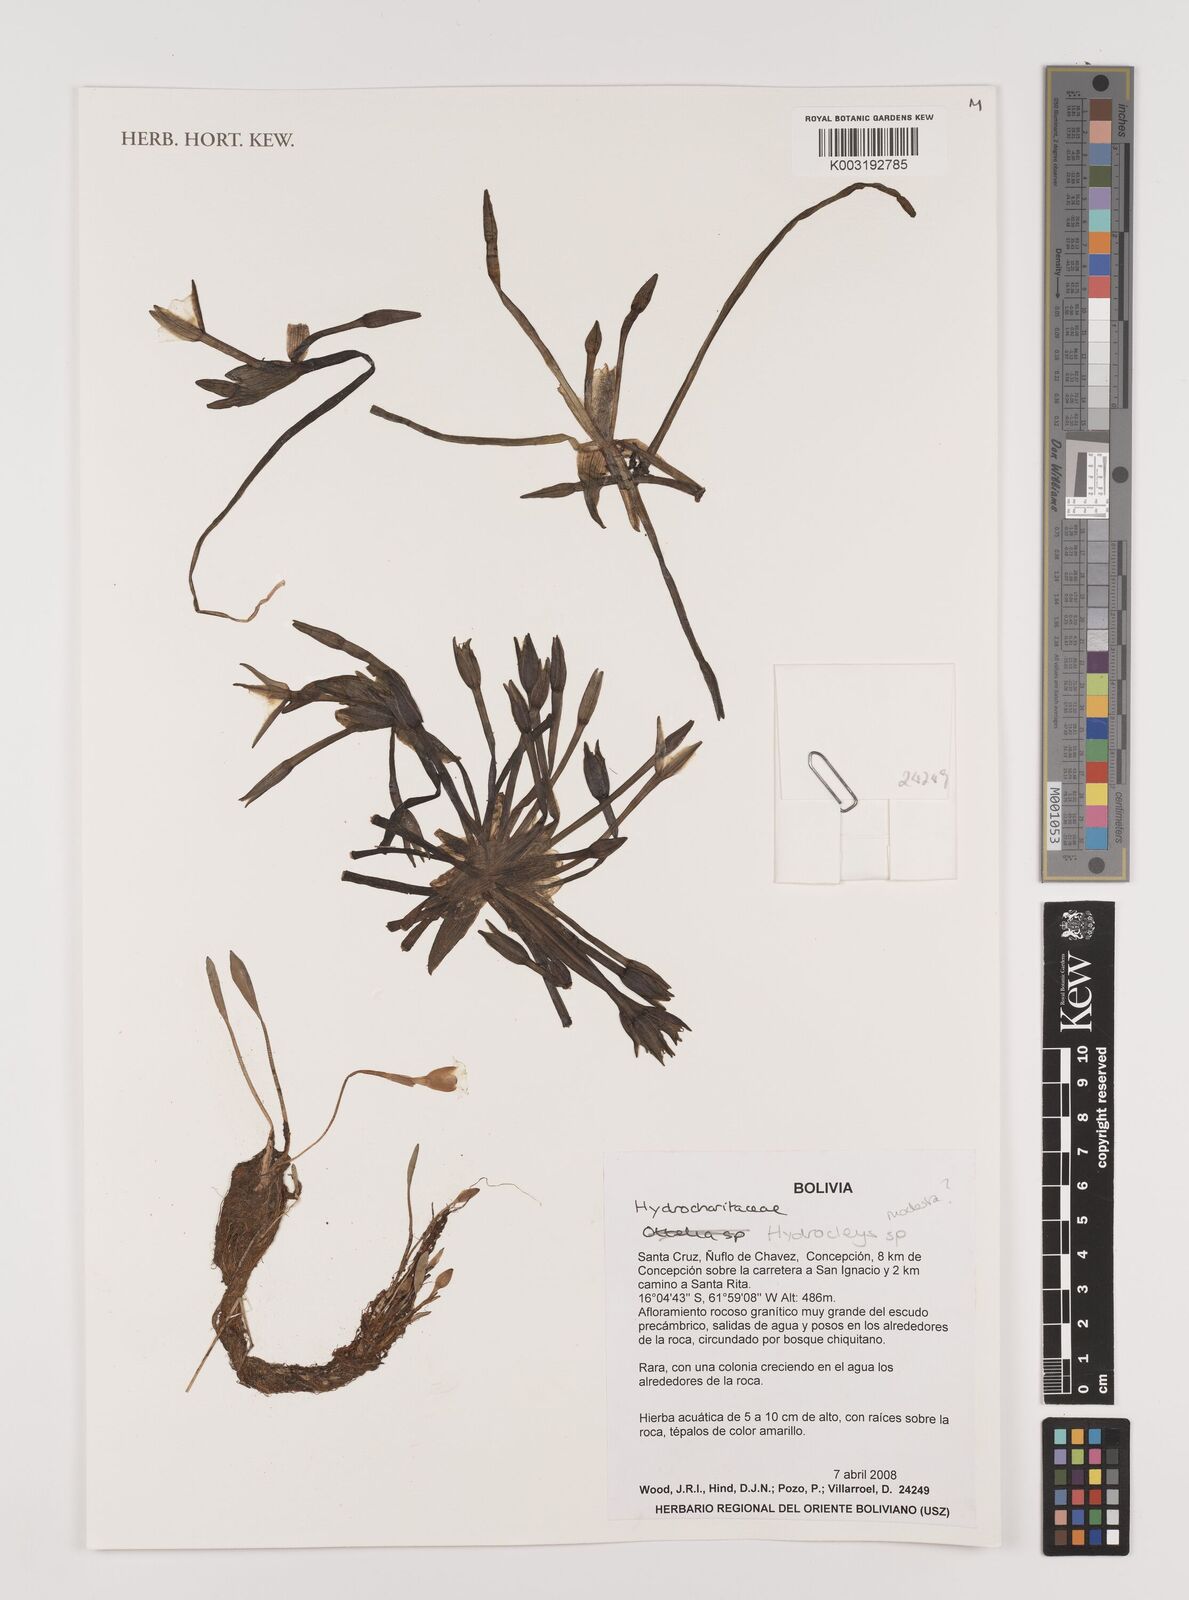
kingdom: Plantae
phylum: Tracheophyta
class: Liliopsida
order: Alismatales
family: Alismataceae
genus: Hydrocleys
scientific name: Hydrocleys
